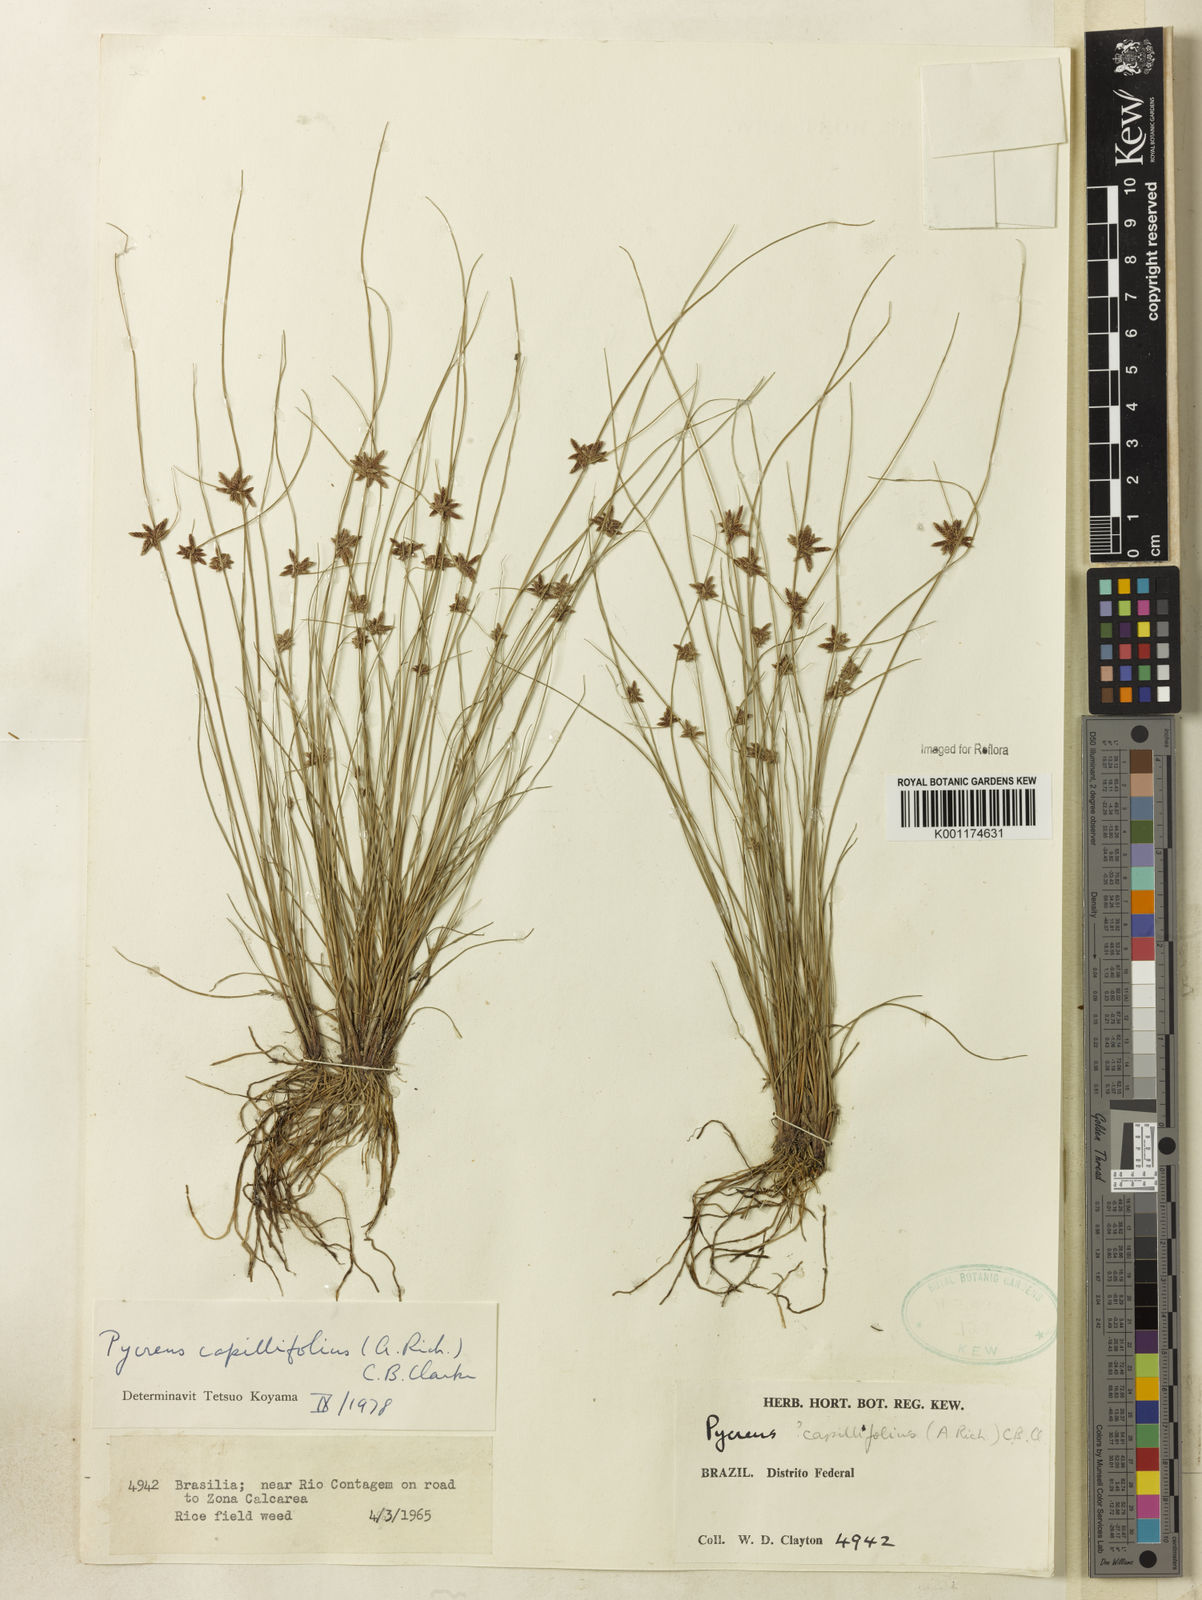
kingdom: Plantae
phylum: Tracheophyta
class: Liliopsida
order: Poales
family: Cyperaceae
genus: Cyperus
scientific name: Cyperus capillifolius
